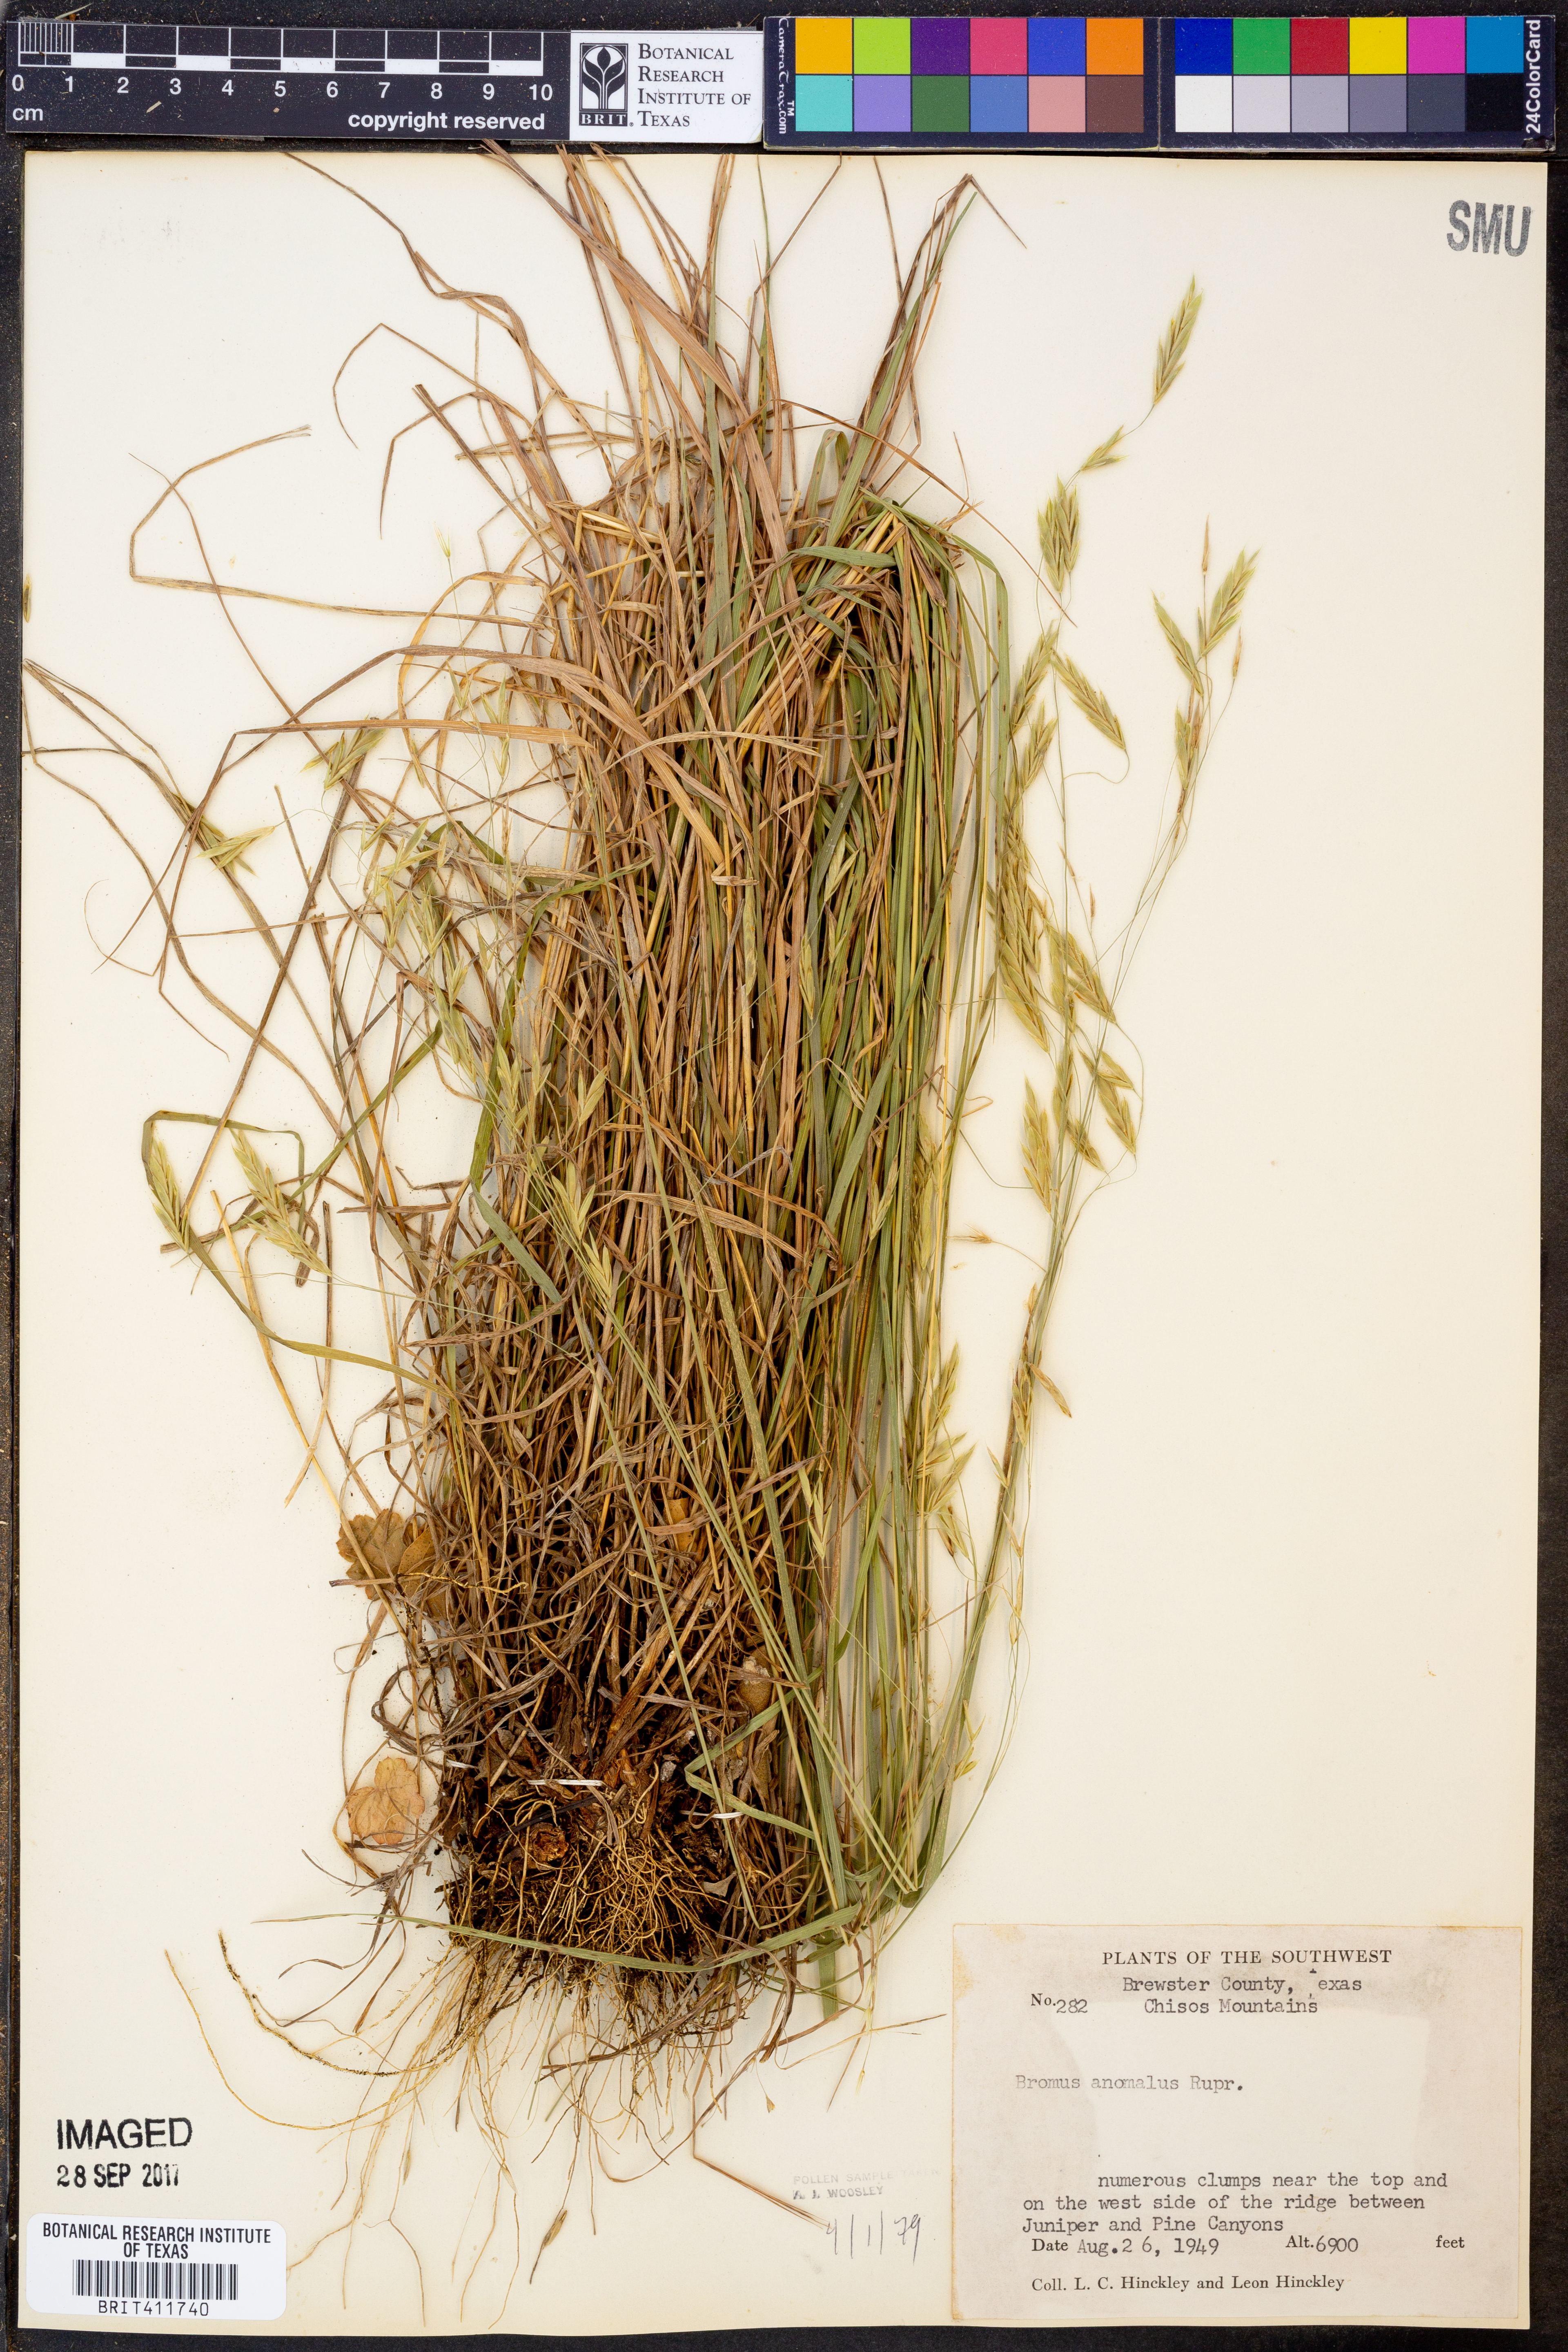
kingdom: Plantae
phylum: Tracheophyta
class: Liliopsida
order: Poales
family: Poaceae
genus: Bromus
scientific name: Bromus anomalus
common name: Nodding brome
